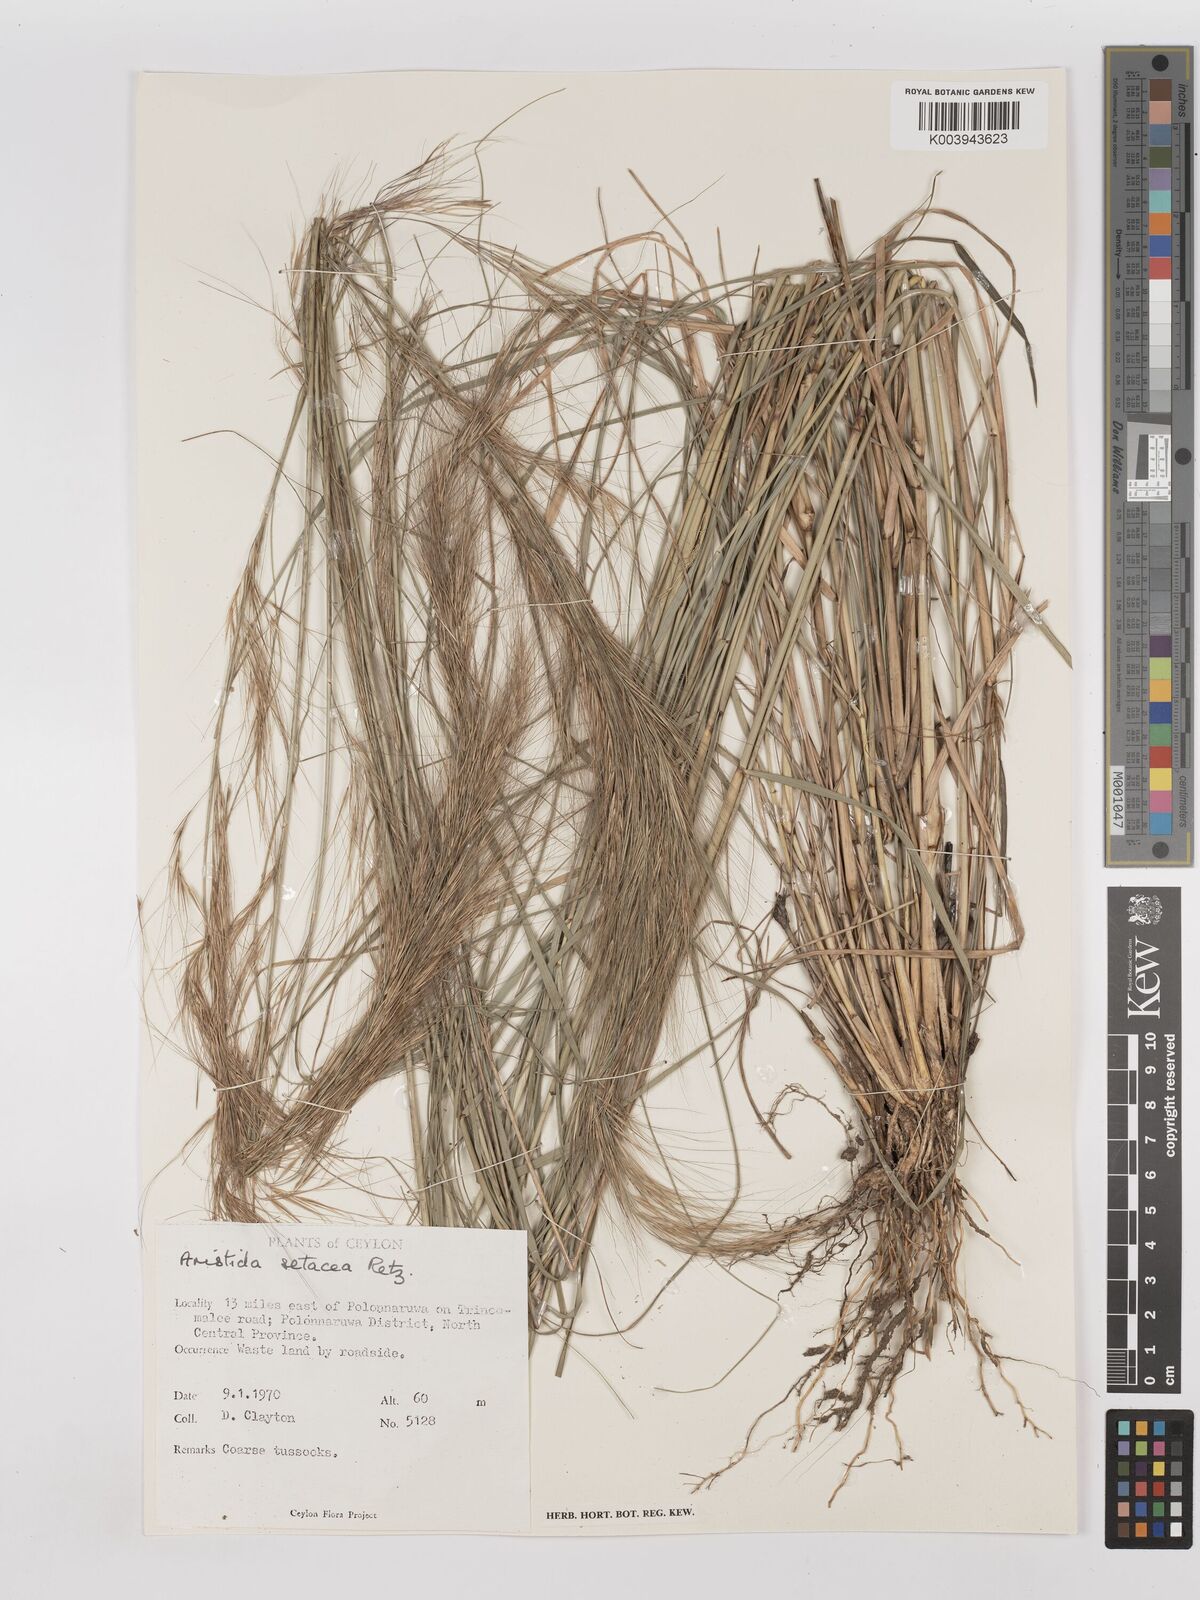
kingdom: Plantae
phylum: Tracheophyta
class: Liliopsida
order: Poales
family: Poaceae
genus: Aristida
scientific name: Aristida setacea
